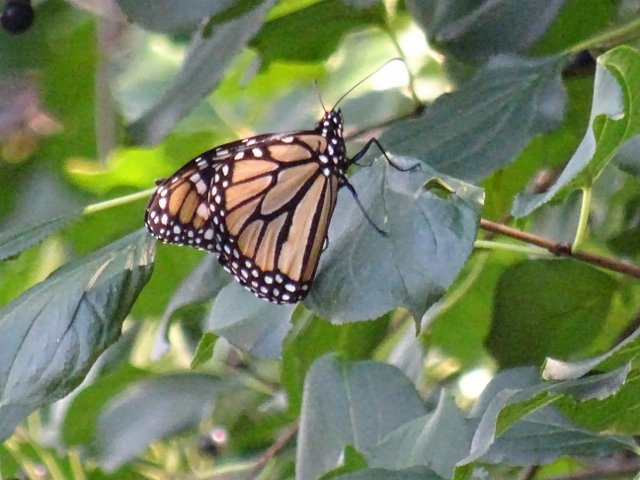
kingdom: Animalia
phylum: Arthropoda
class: Insecta
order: Lepidoptera
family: Nymphalidae
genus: Danaus
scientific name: Danaus plexippus
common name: Monarch
